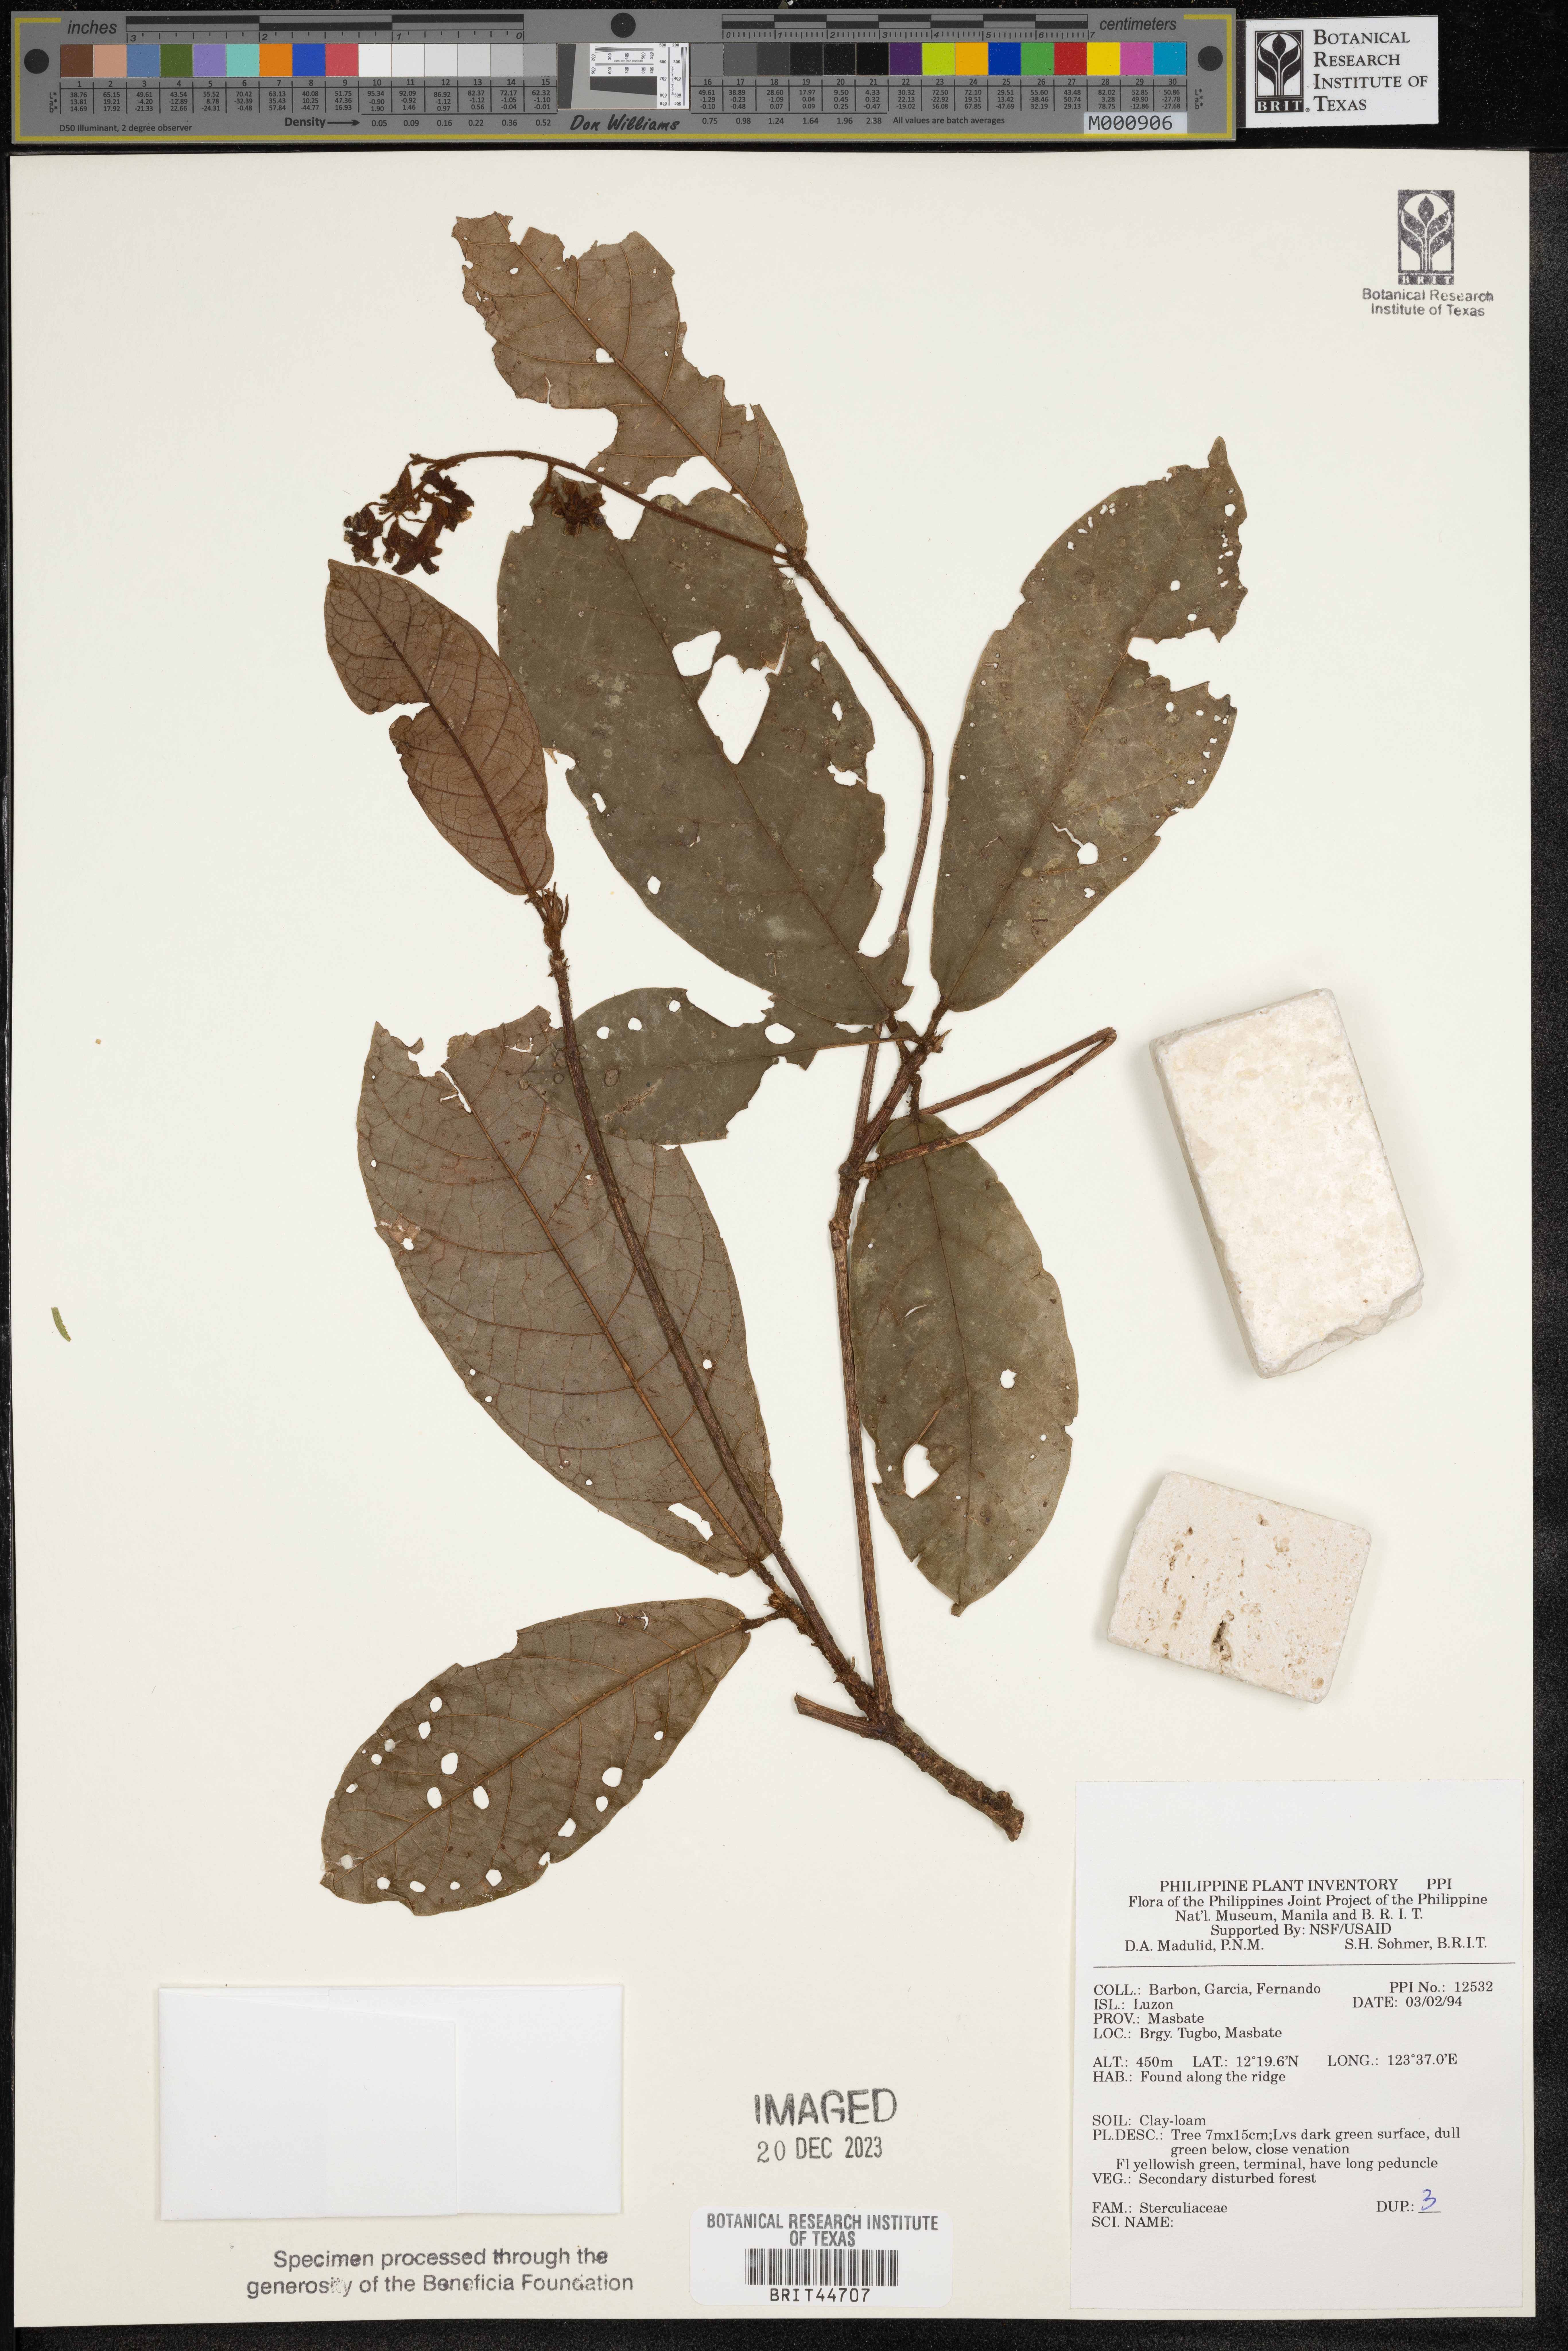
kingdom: Plantae
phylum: Tracheophyta
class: Magnoliopsida
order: Malvales
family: Sterculiaceae
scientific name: Sterculiaceae
